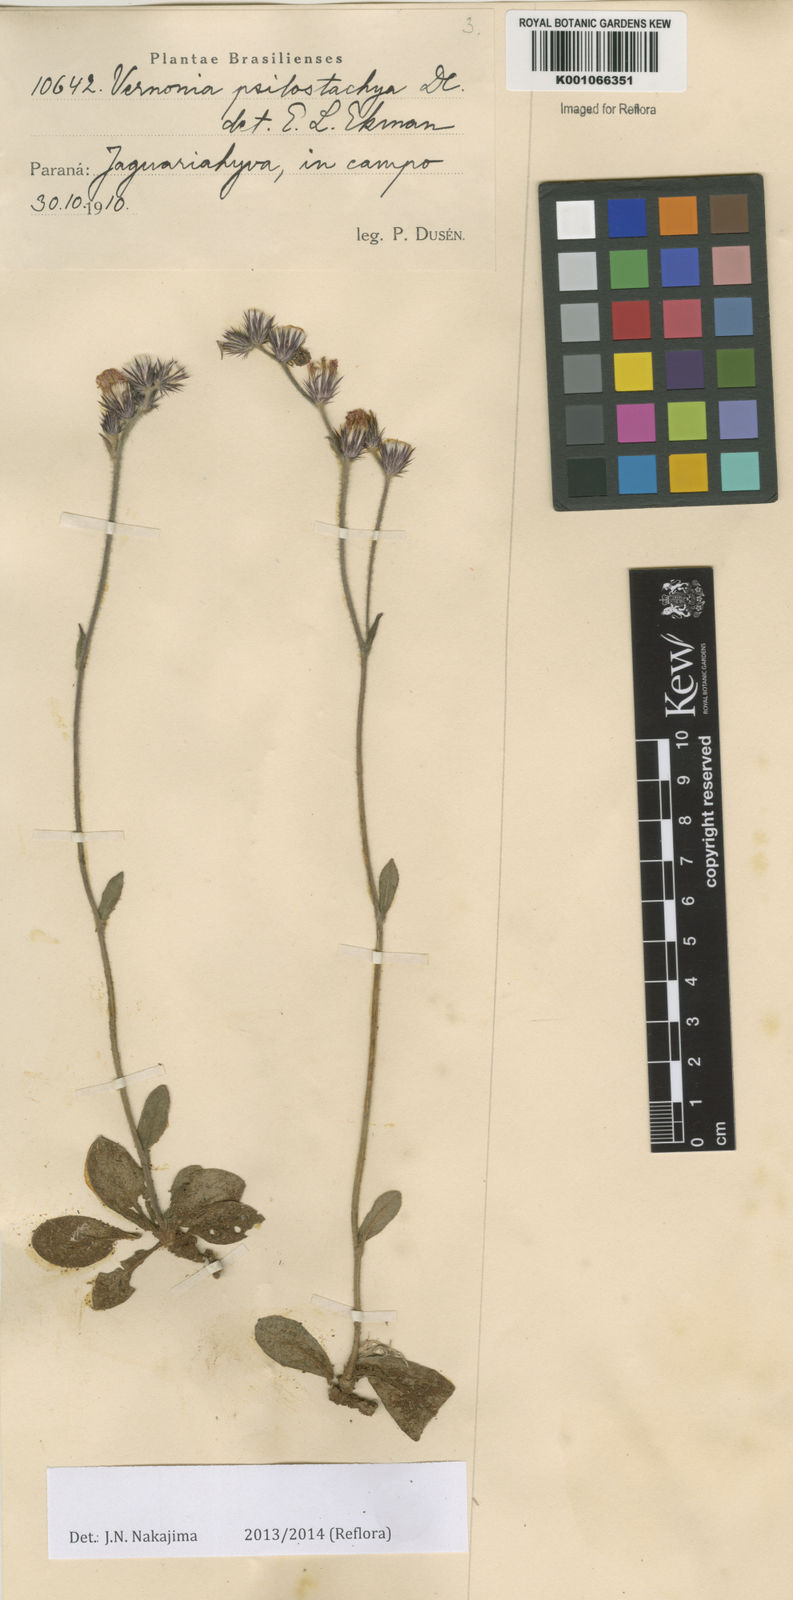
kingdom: Plantae
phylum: Tracheophyta
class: Magnoliopsida
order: Asterales
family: Asteraceae
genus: Lepidaploa
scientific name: Lepidaploa psilostachya
